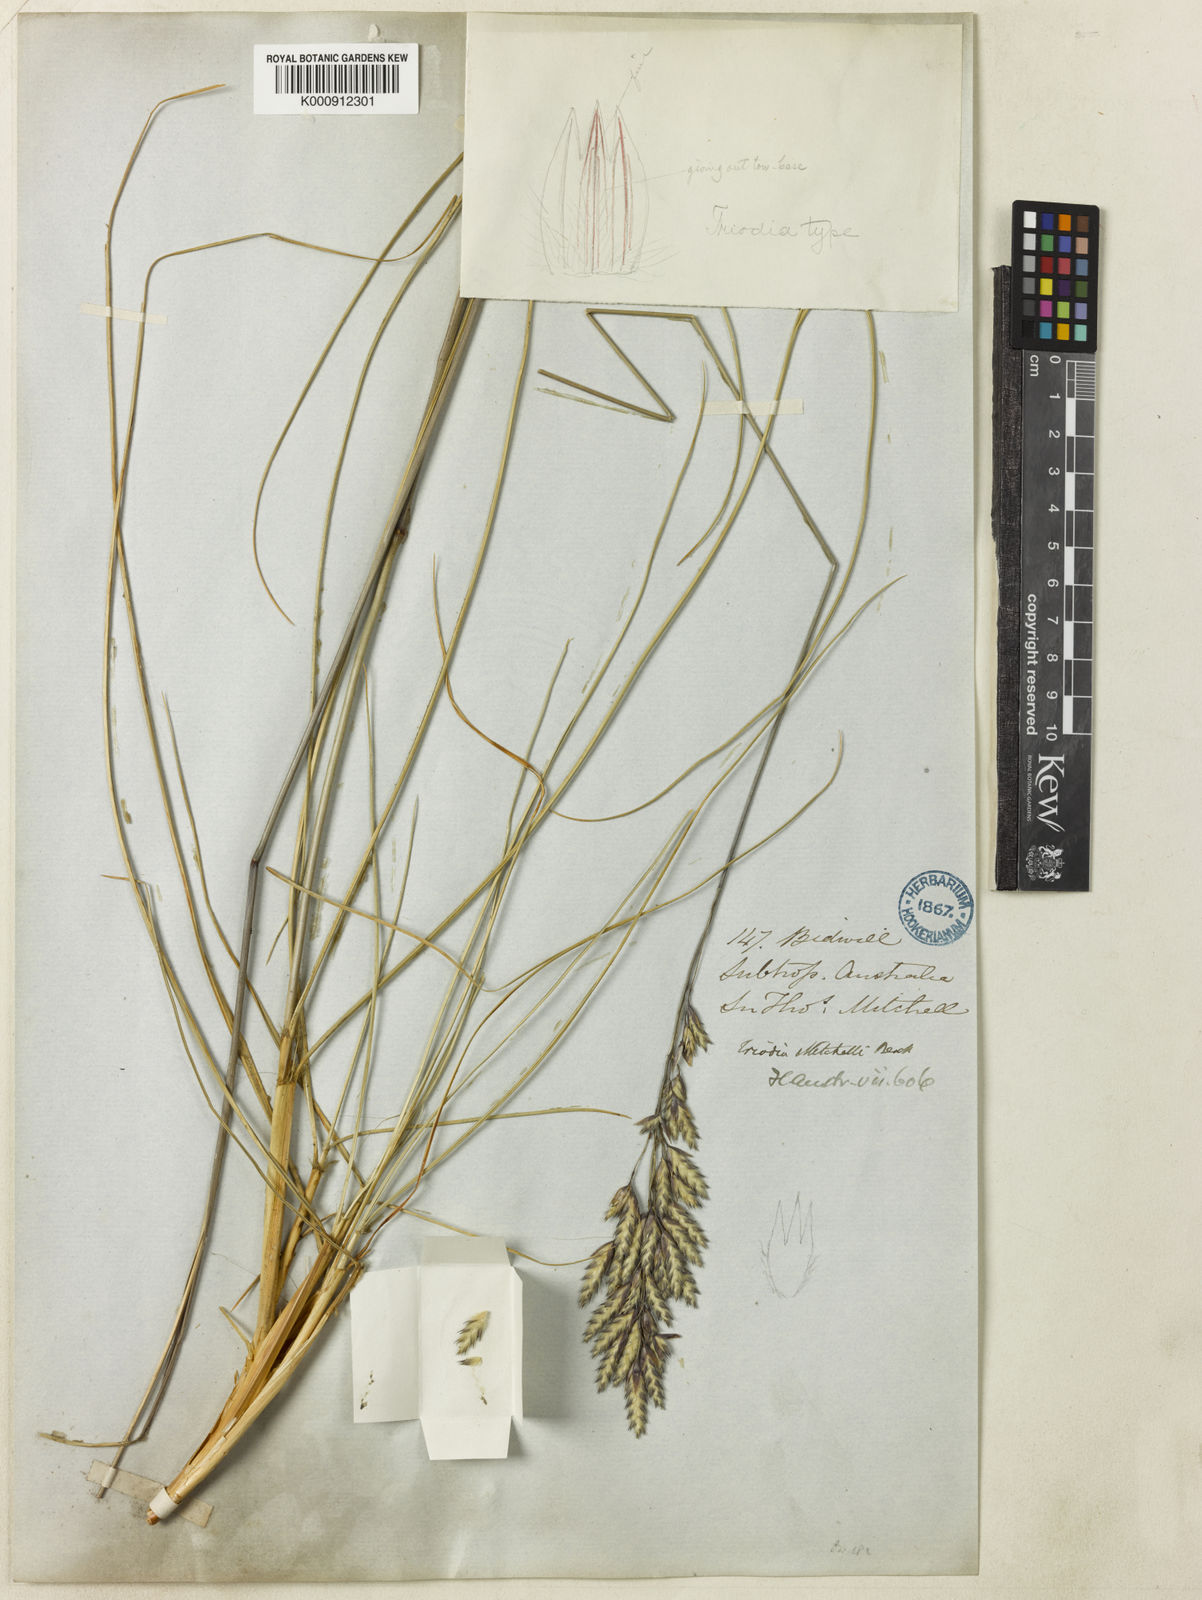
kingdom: Plantae
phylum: Tracheophyta
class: Liliopsida
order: Poales
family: Poaceae
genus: Triodia
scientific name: Triodia mitchellii
